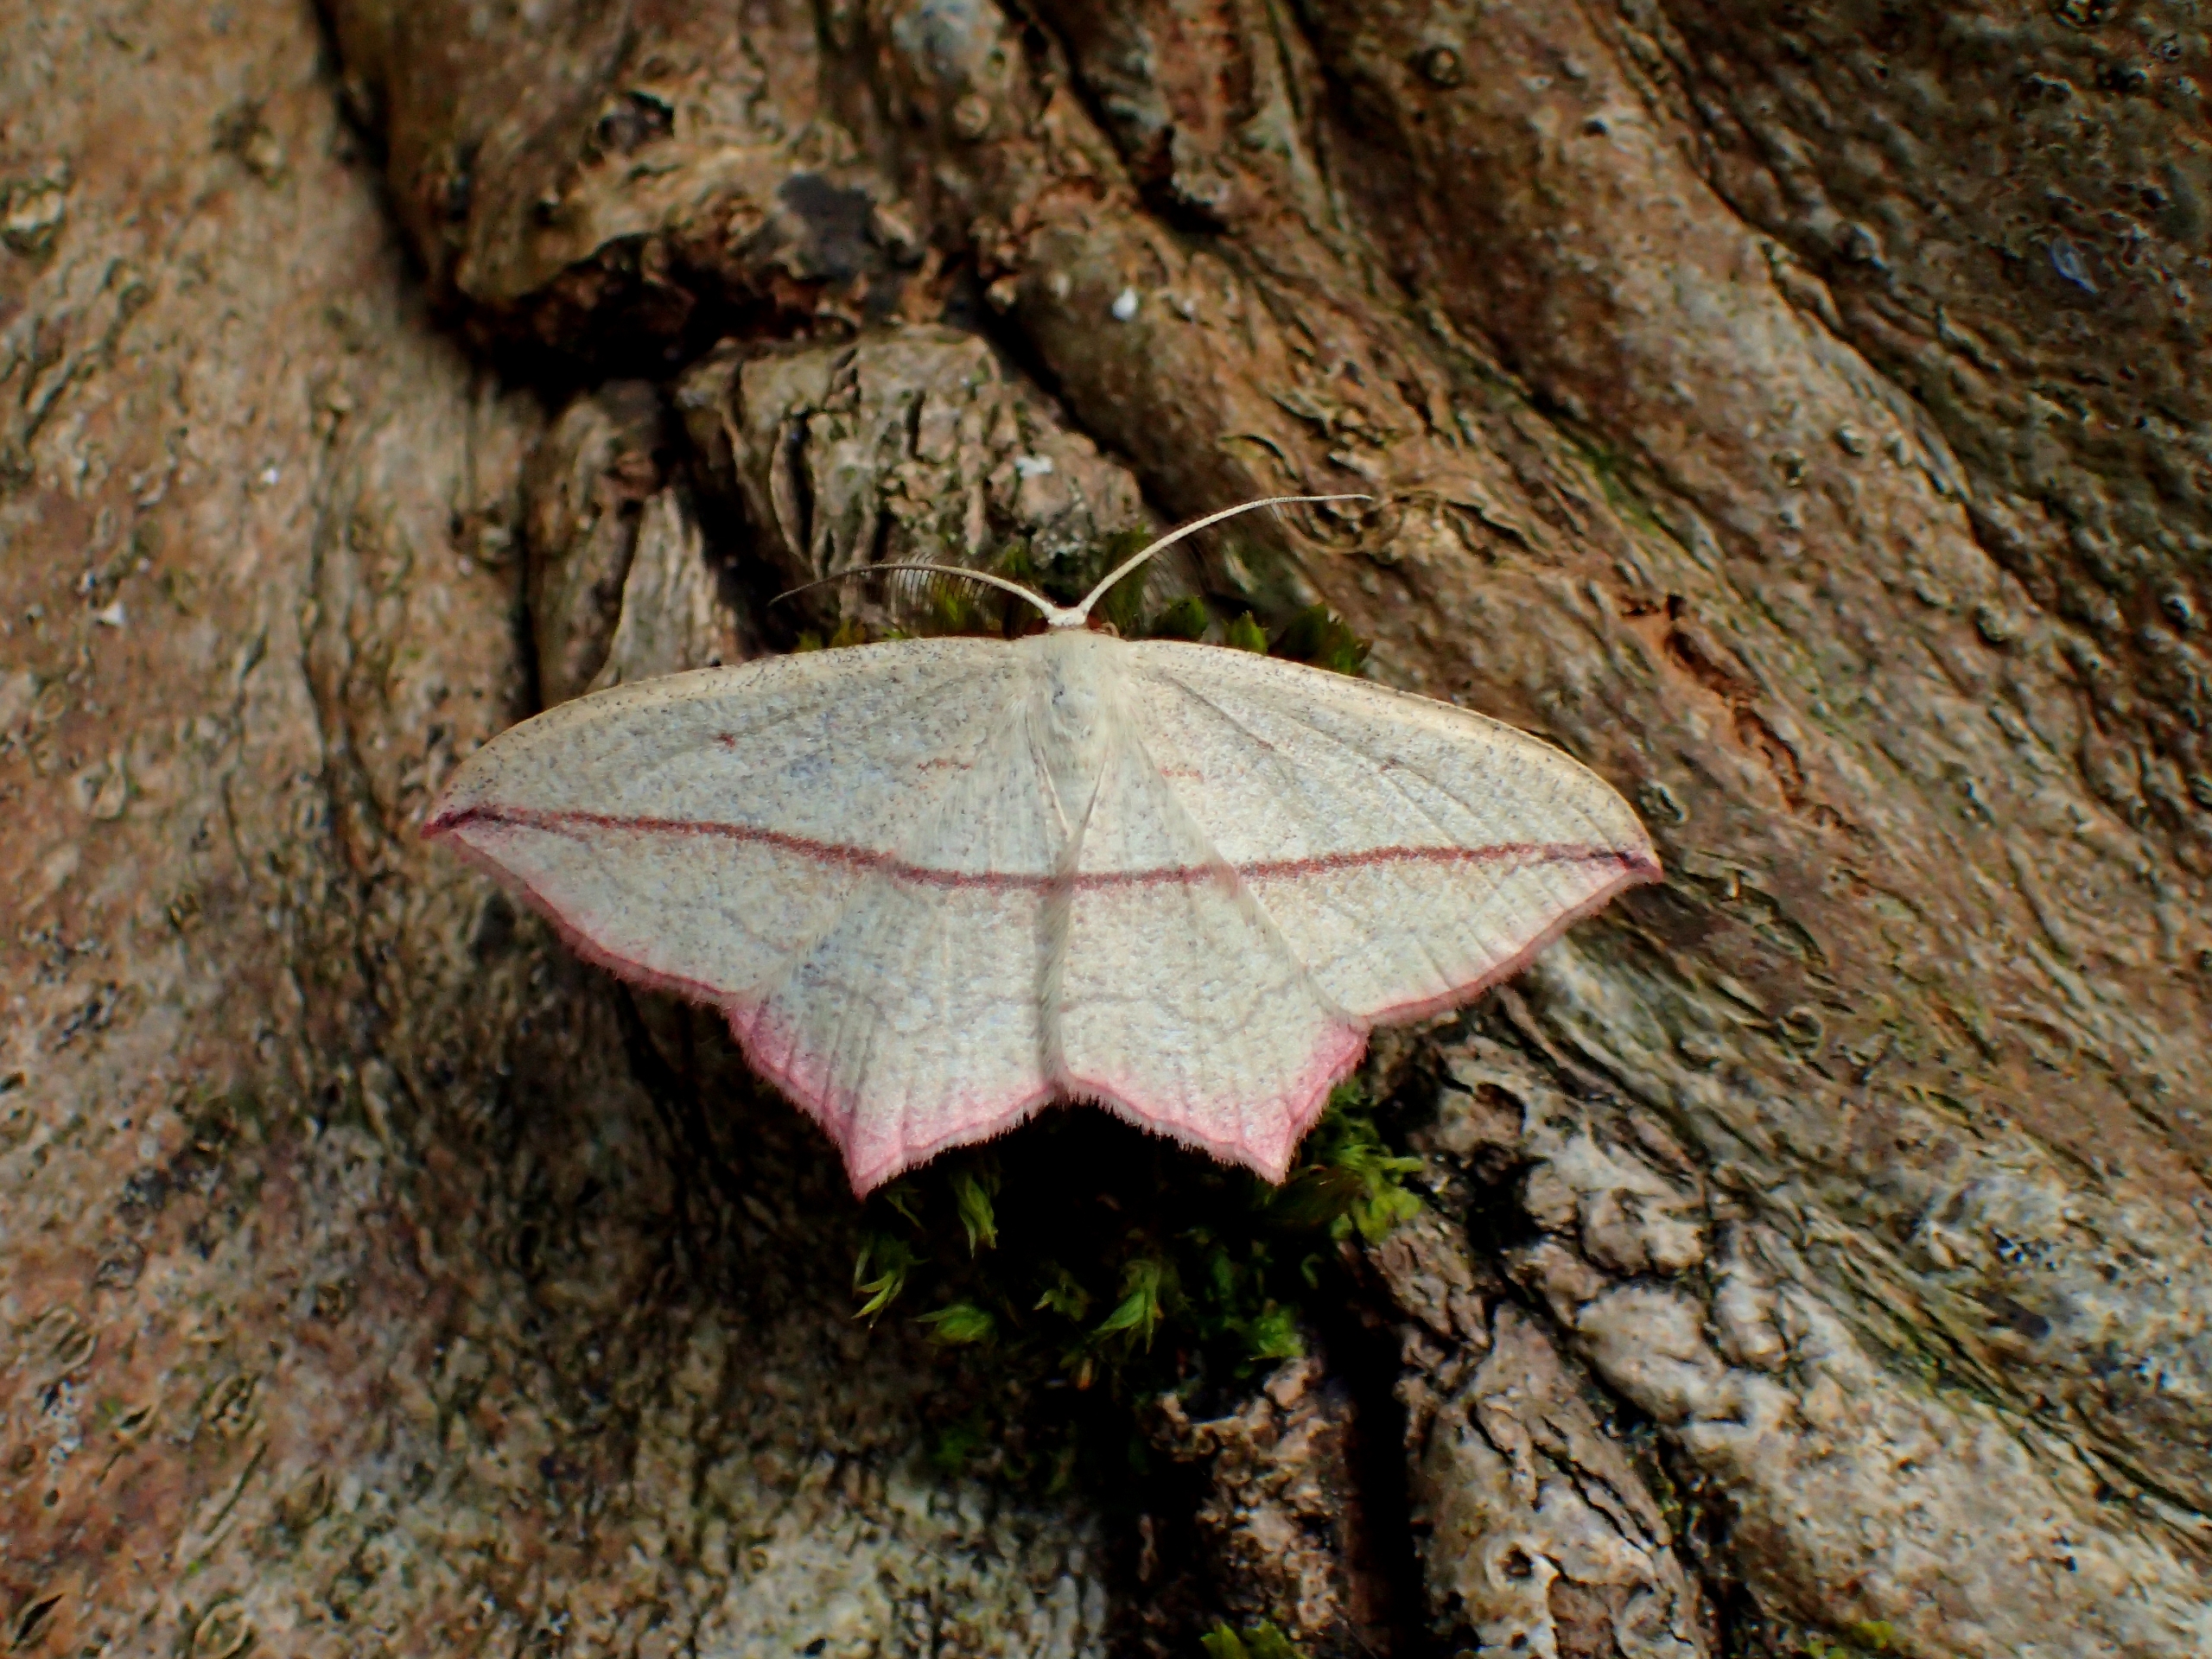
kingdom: Animalia
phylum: Arthropoda
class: Insecta
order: Lepidoptera
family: Geometridae
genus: Timandra
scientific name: Timandra comae
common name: Gul syremåler
